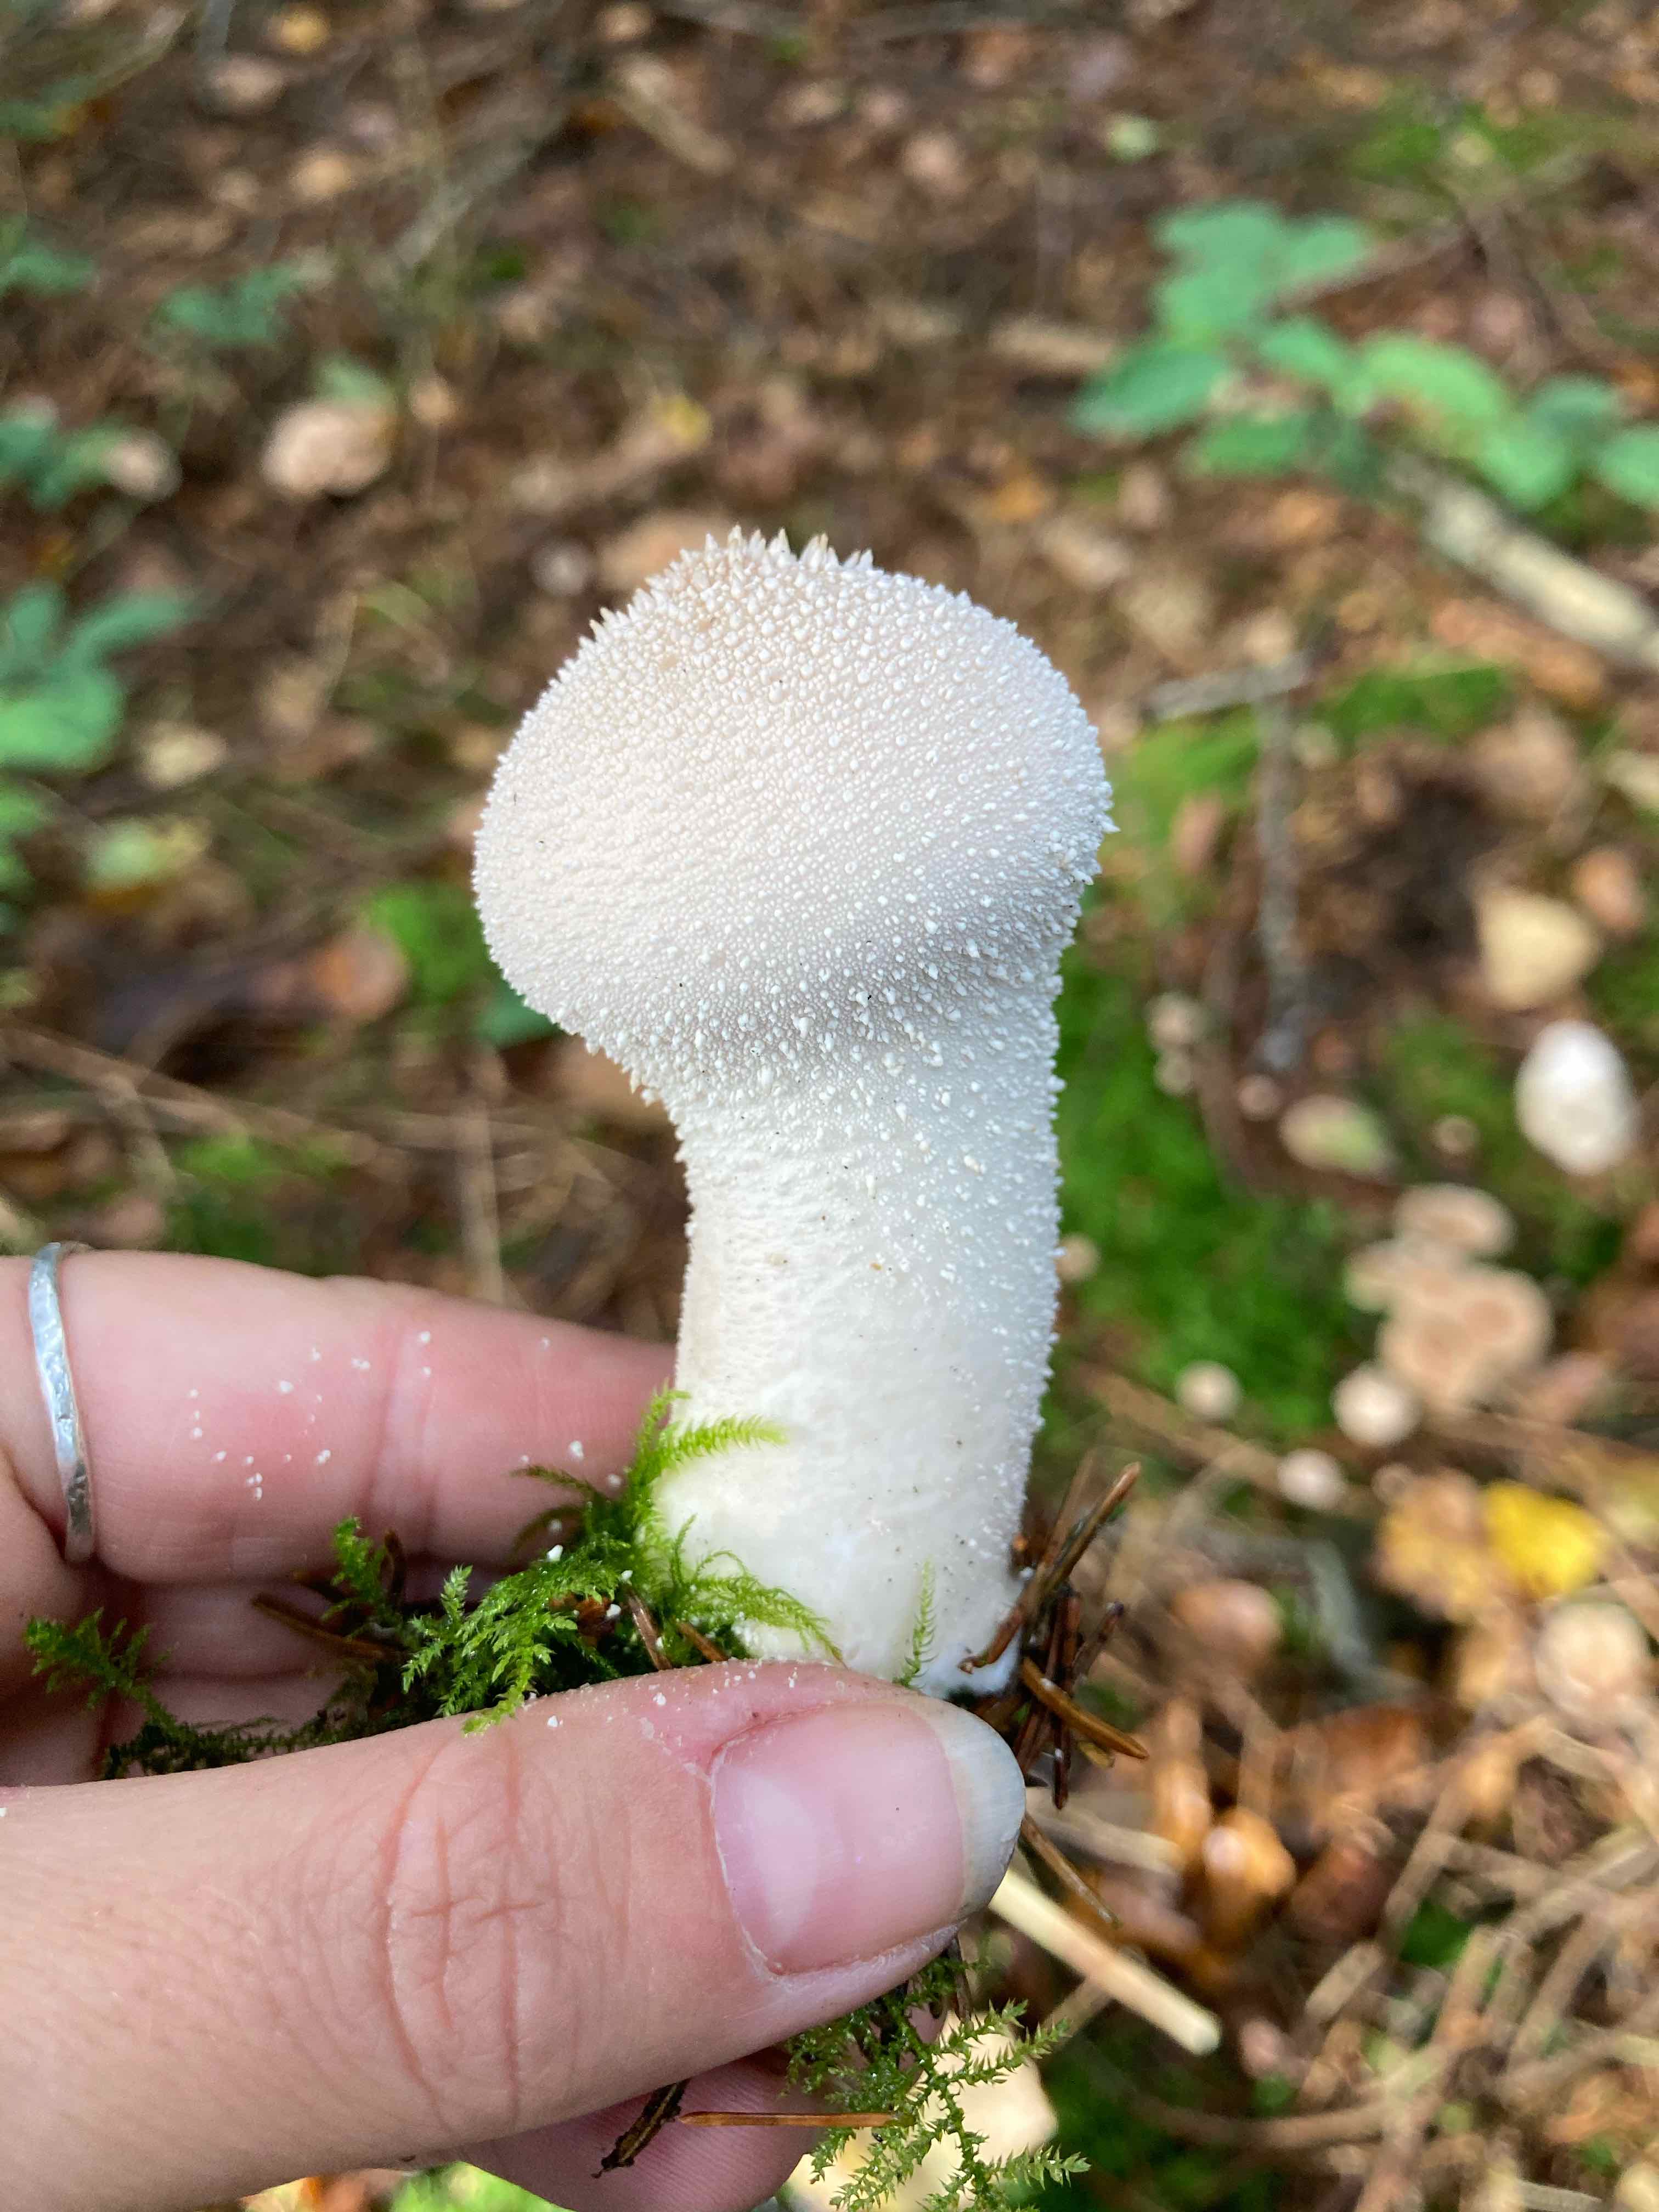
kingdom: Fungi
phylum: Basidiomycota
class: Agaricomycetes
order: Agaricales
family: Lycoperdaceae
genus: Lycoperdon
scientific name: Lycoperdon perlatum
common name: krystal-støvbold
